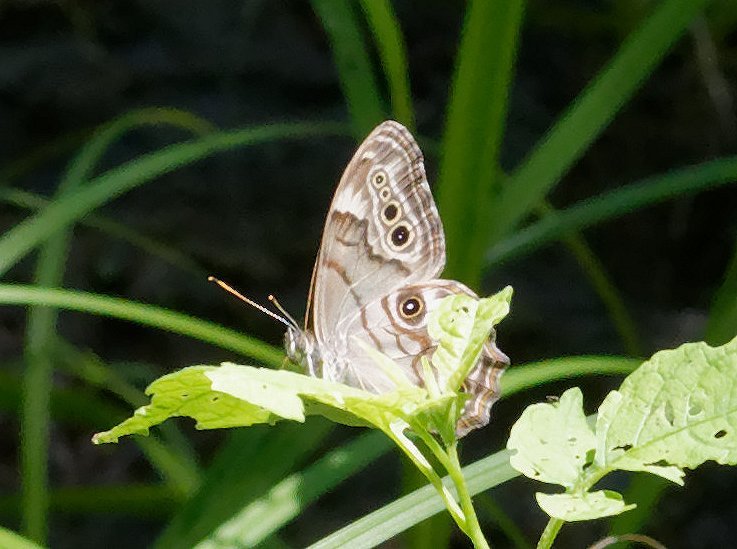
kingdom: Animalia
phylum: Arthropoda
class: Insecta
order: Lepidoptera
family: Nymphalidae
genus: Lethe
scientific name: Lethe anthedon
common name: Northern Pearly-Eye
